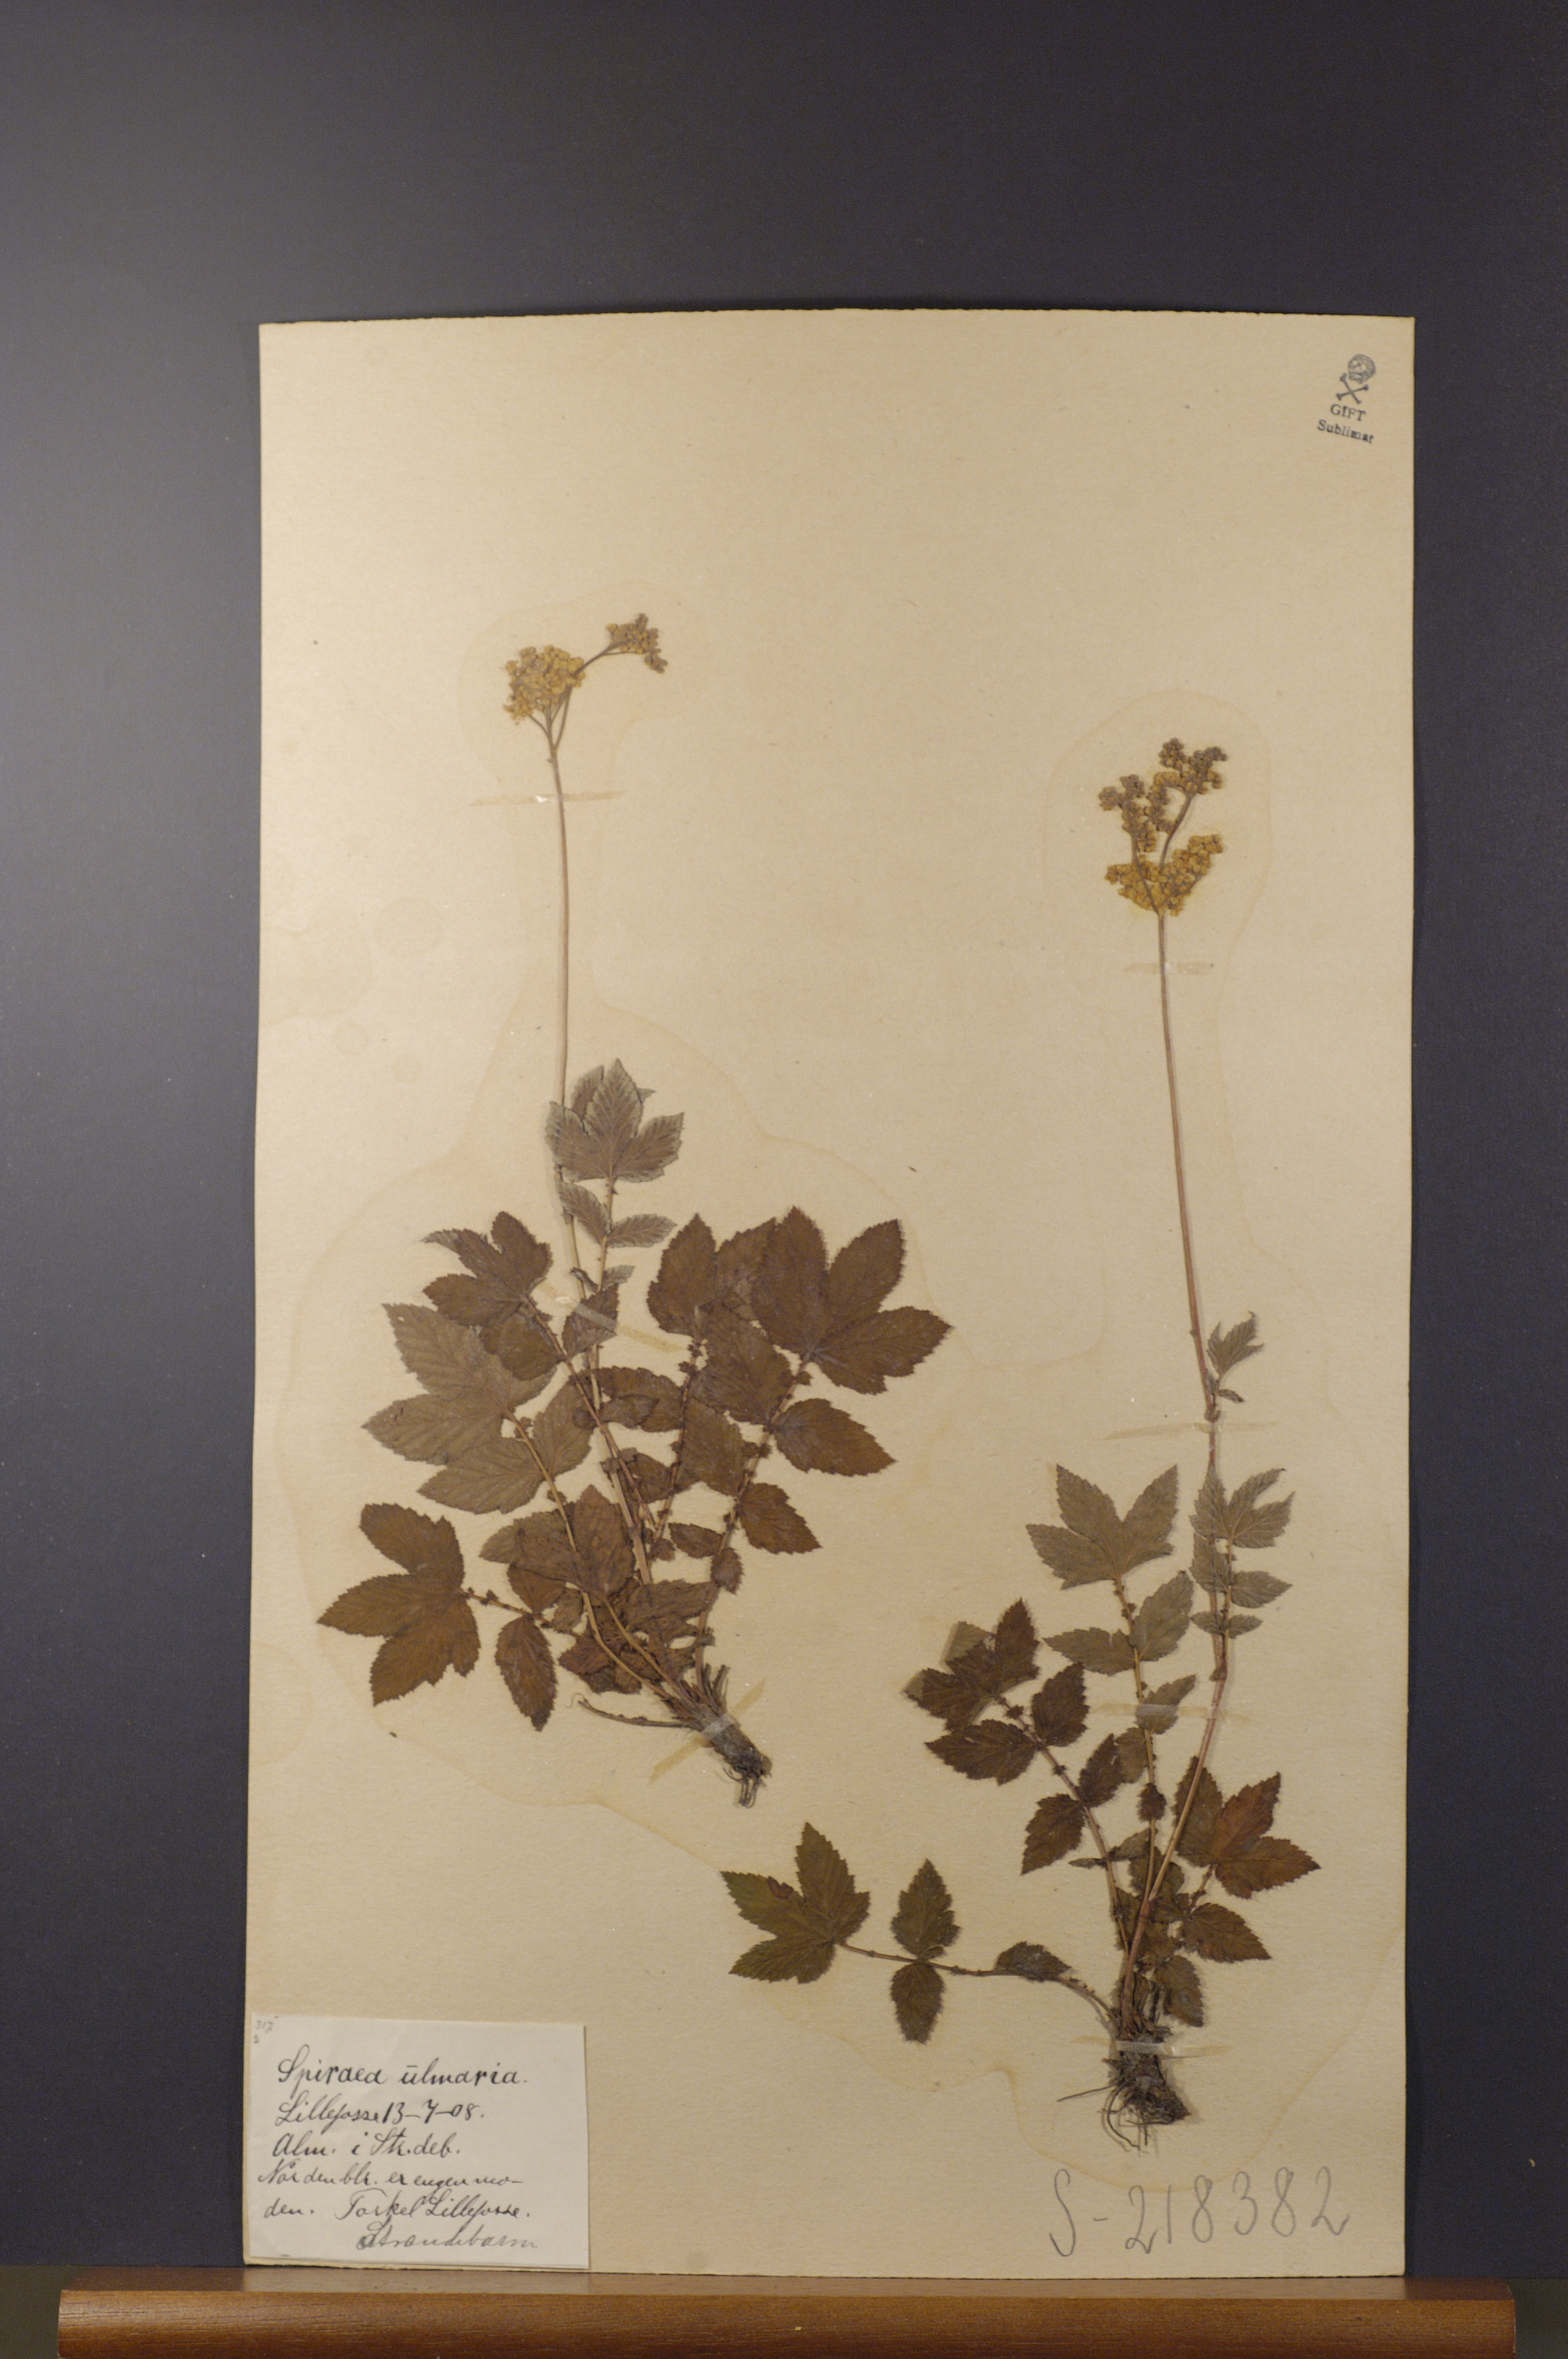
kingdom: Plantae
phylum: Tracheophyta
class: Magnoliopsida
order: Rosales
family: Rosaceae
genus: Filipendula
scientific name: Filipendula ulmaria
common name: Meadowsweet
